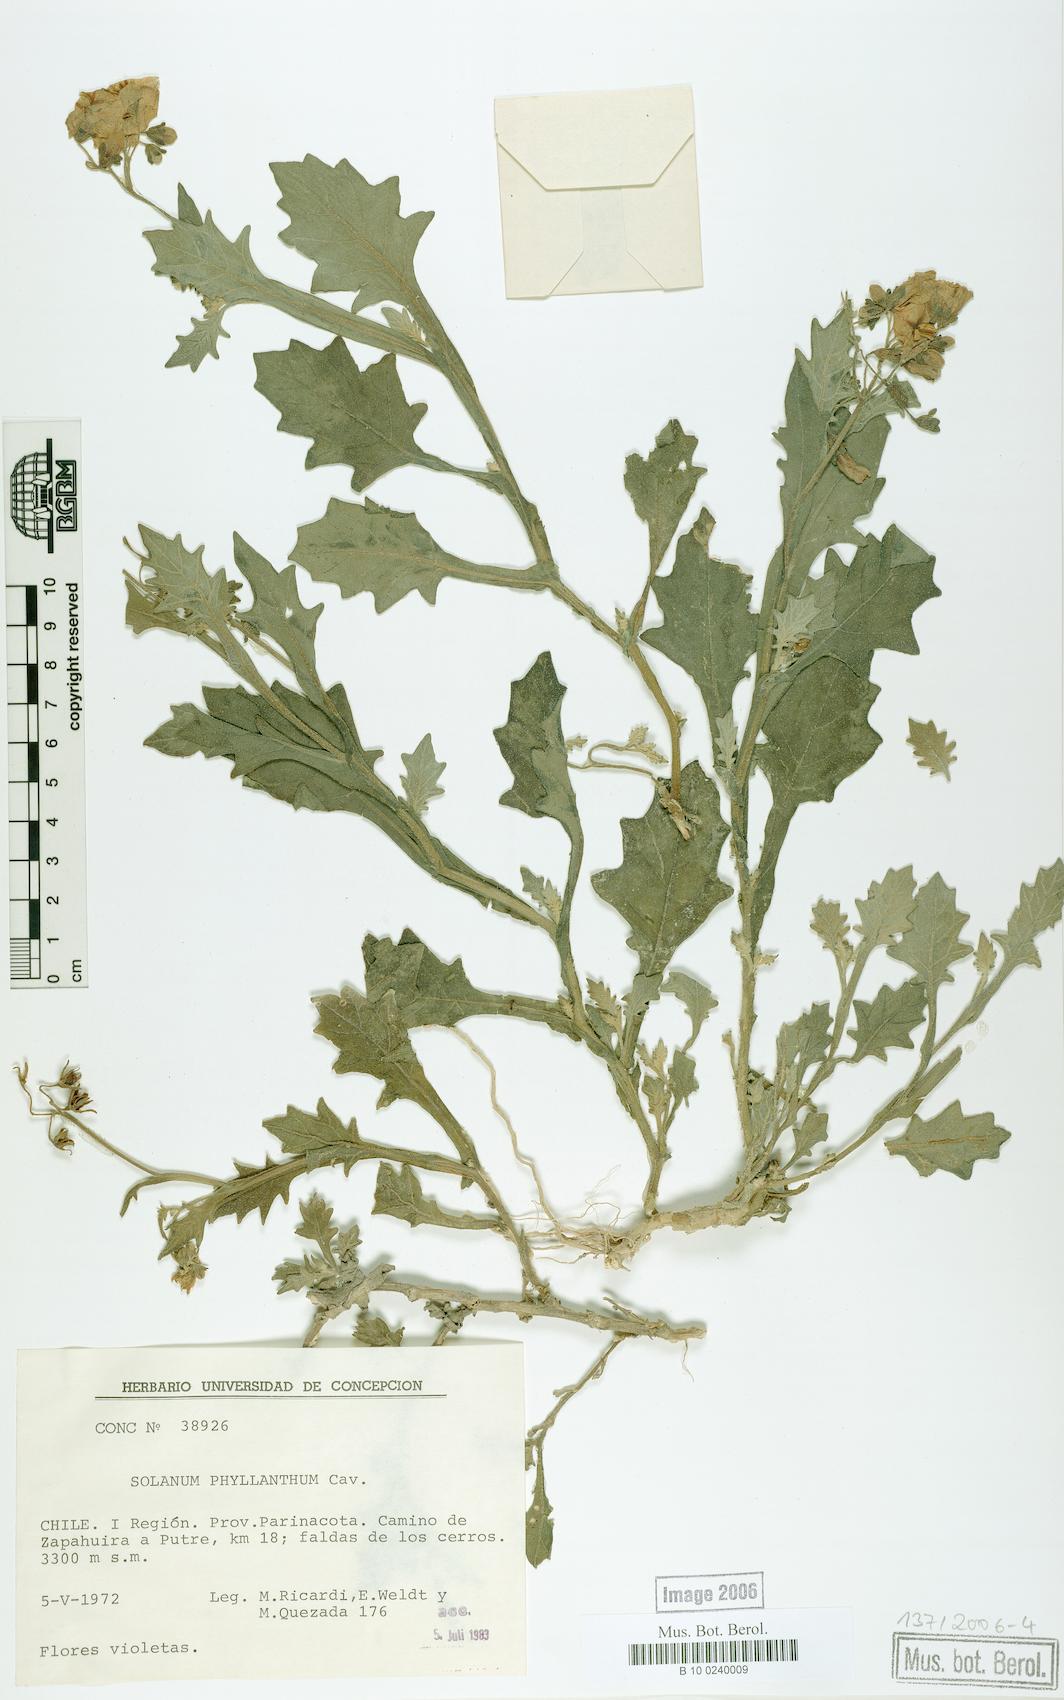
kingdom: Plantae
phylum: Tracheophyta
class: Magnoliopsida
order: Solanales
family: Solanaceae
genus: Solanum
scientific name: Solanum paposanum
